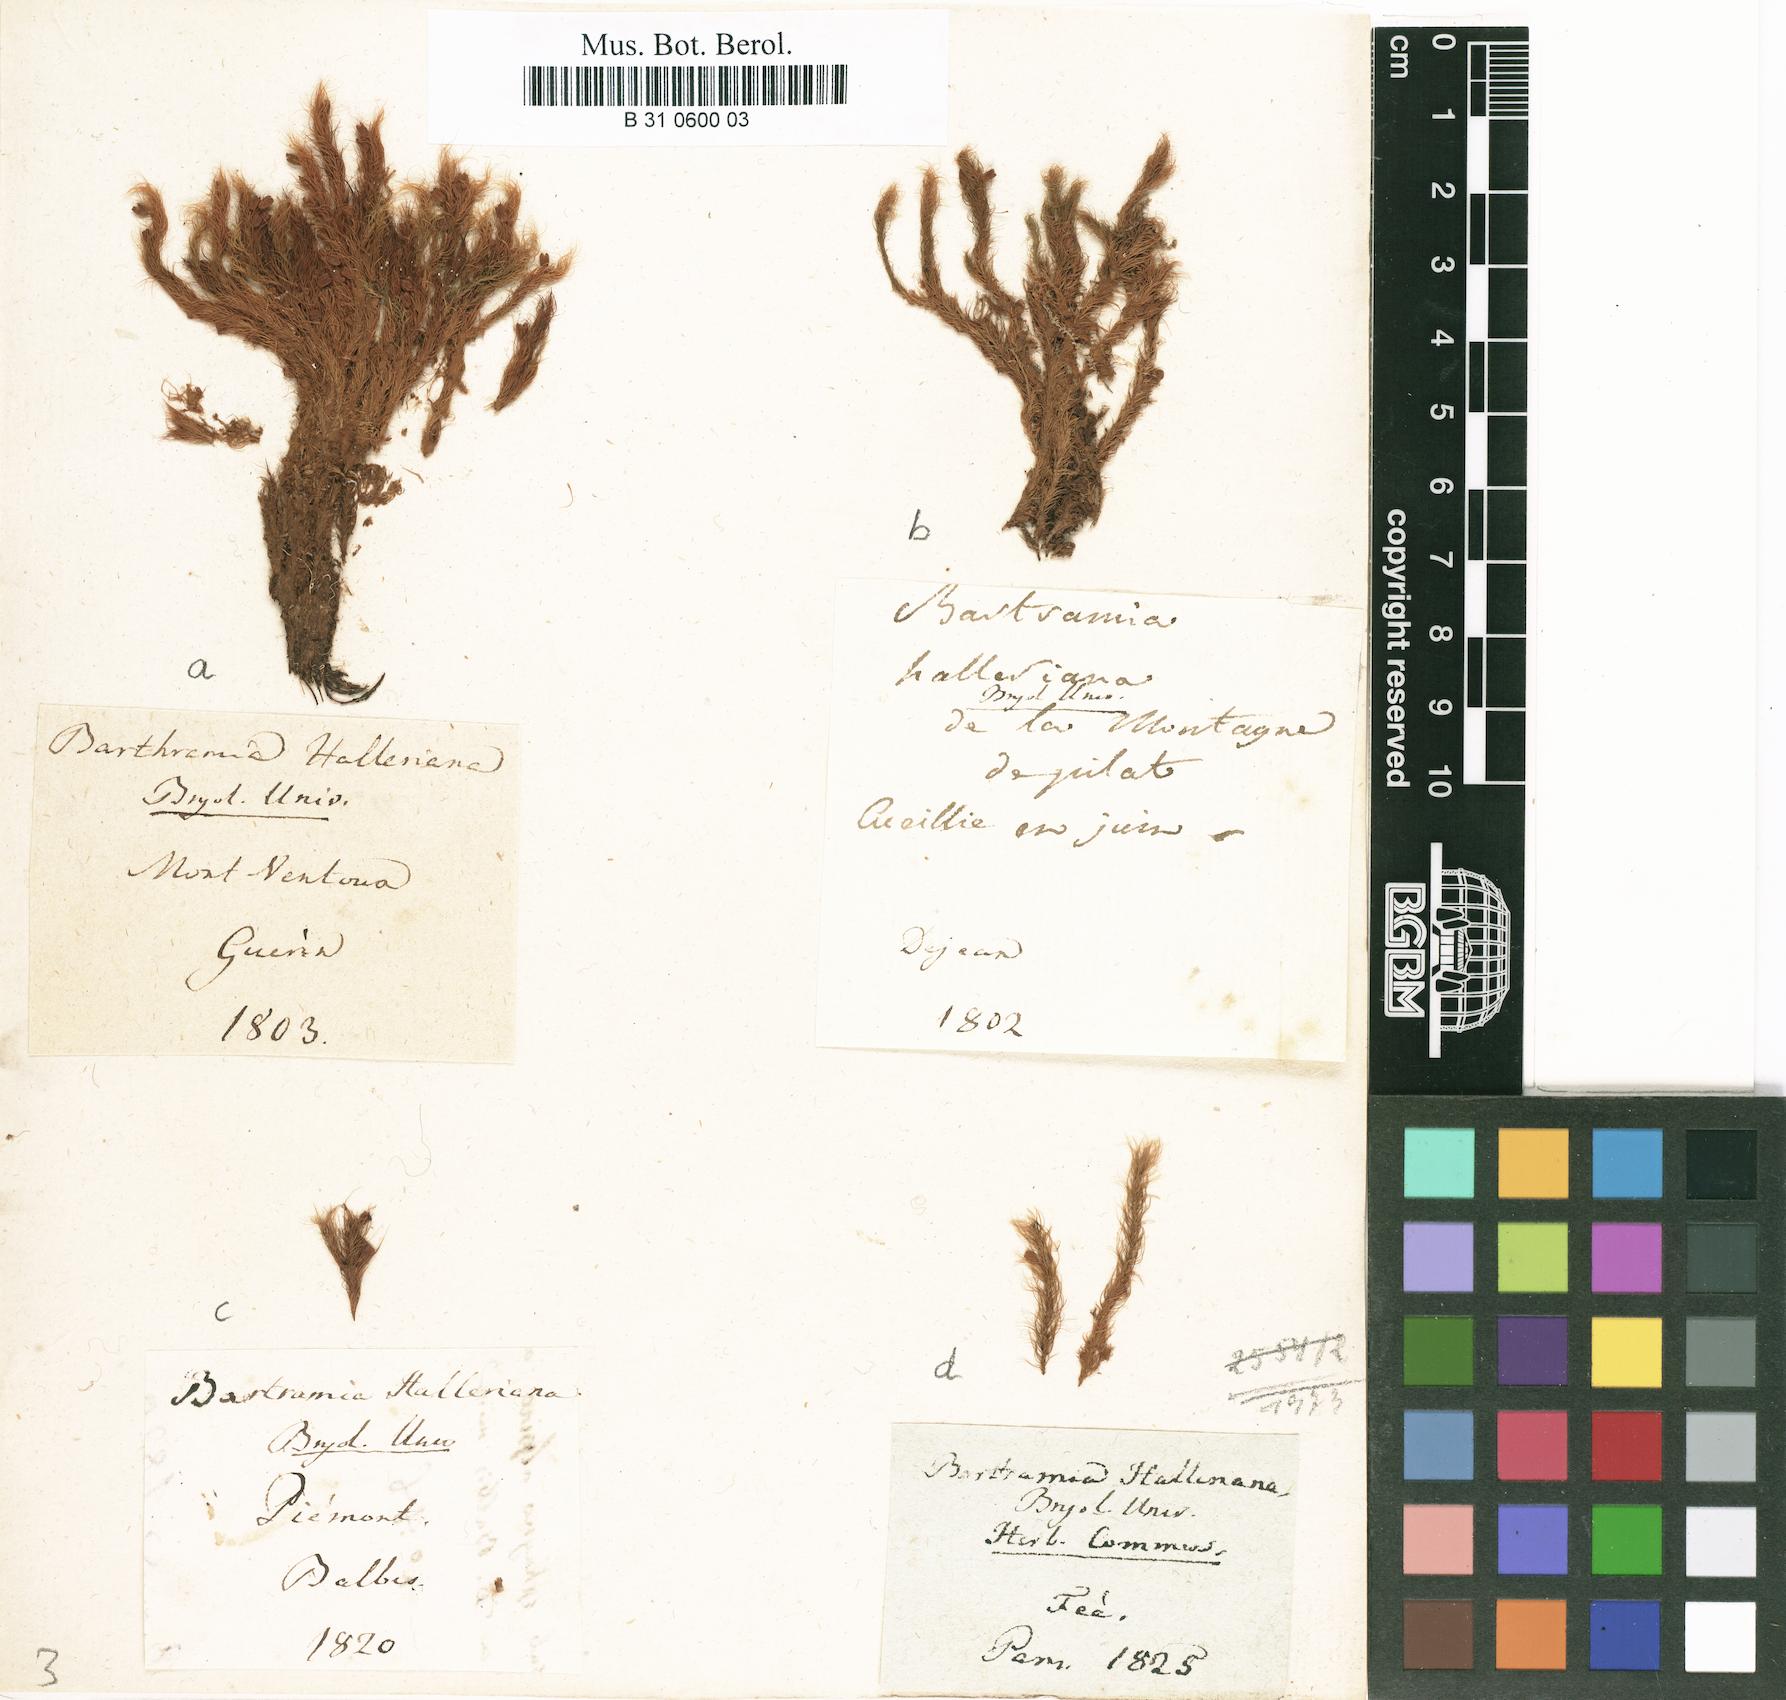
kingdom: Plantae
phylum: Bryophyta
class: Bryopsida
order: Bartramiales
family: Bartramiaceae
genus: Bartramia
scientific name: Bartramia halleriana
